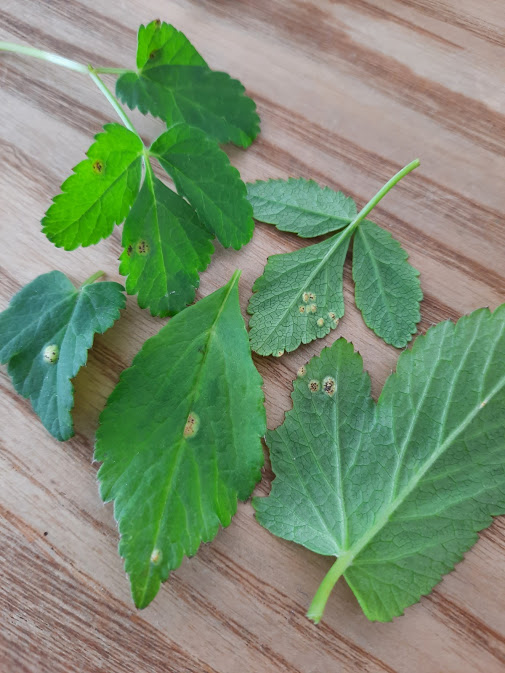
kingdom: Fungi
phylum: Basidiomycota
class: Pucciniomycetes
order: Pucciniales
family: Pucciniaceae
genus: Puccinia
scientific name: Puccinia
